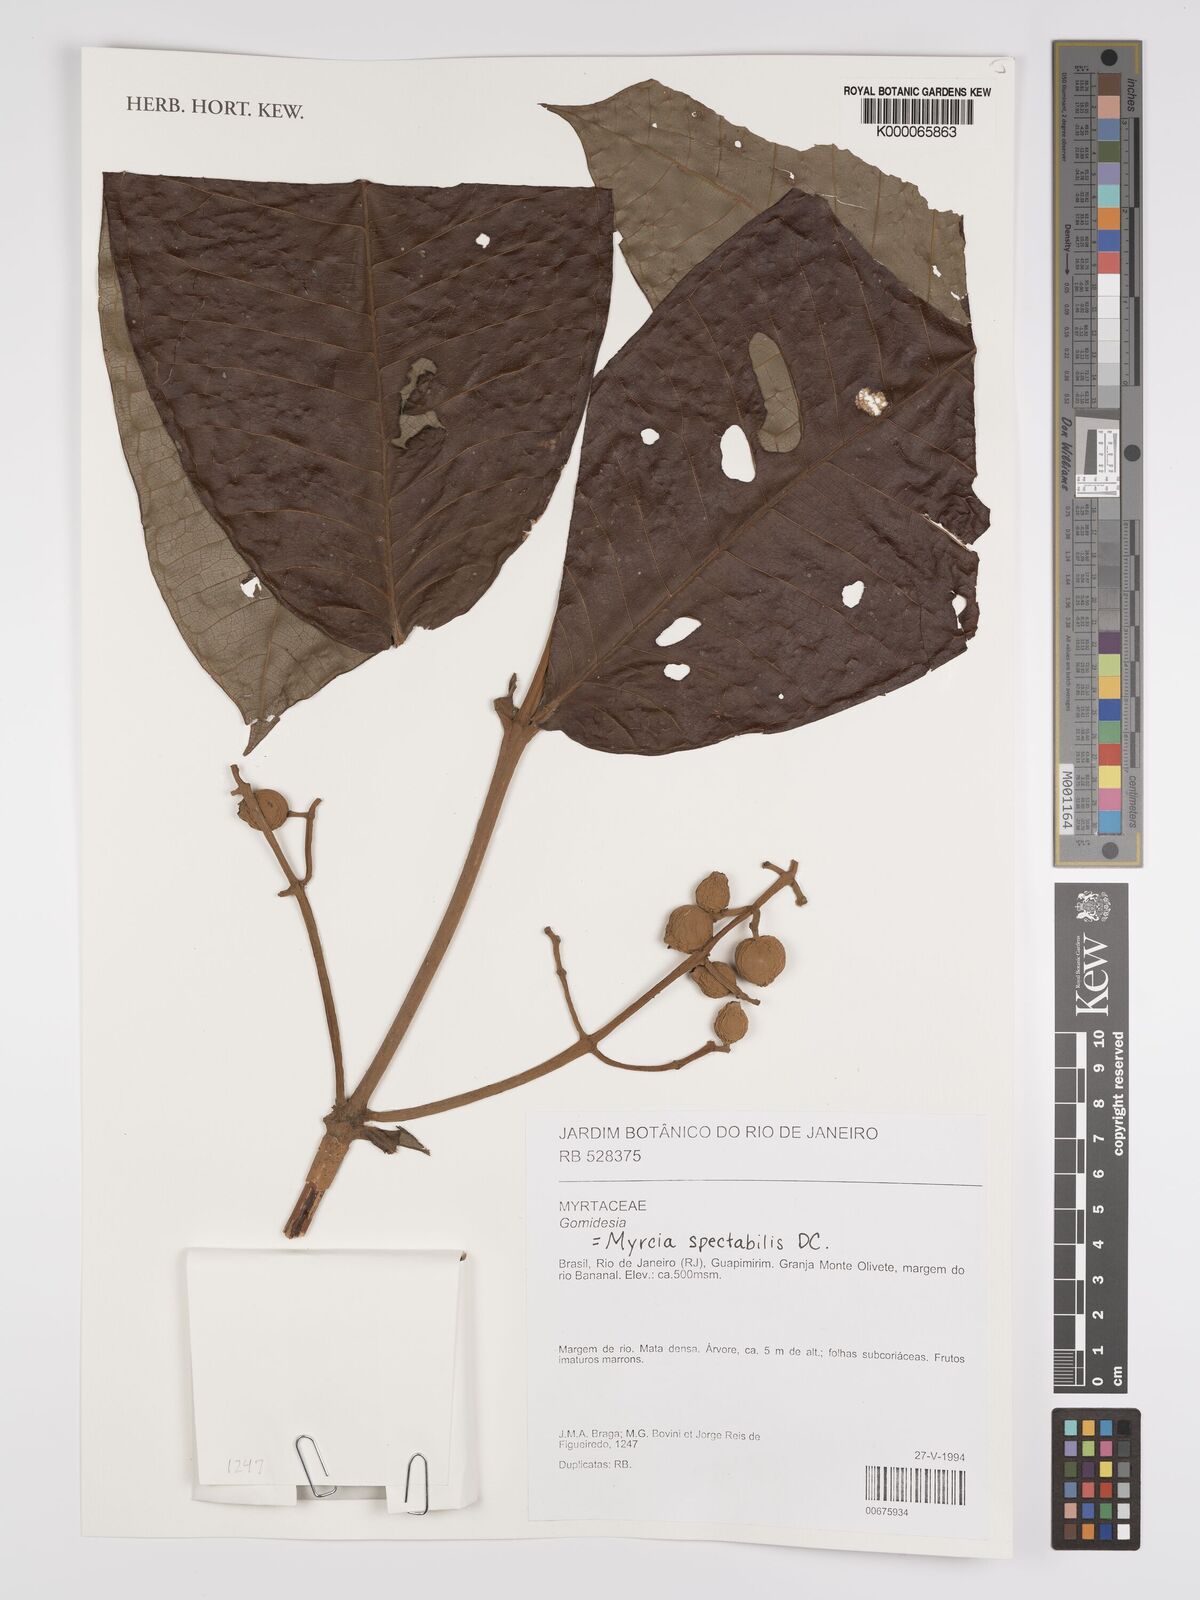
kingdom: Plantae
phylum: Tracheophyta
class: Magnoliopsida
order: Myrtales
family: Myrtaceae
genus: Myrcia
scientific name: Myrcia spectabilis
